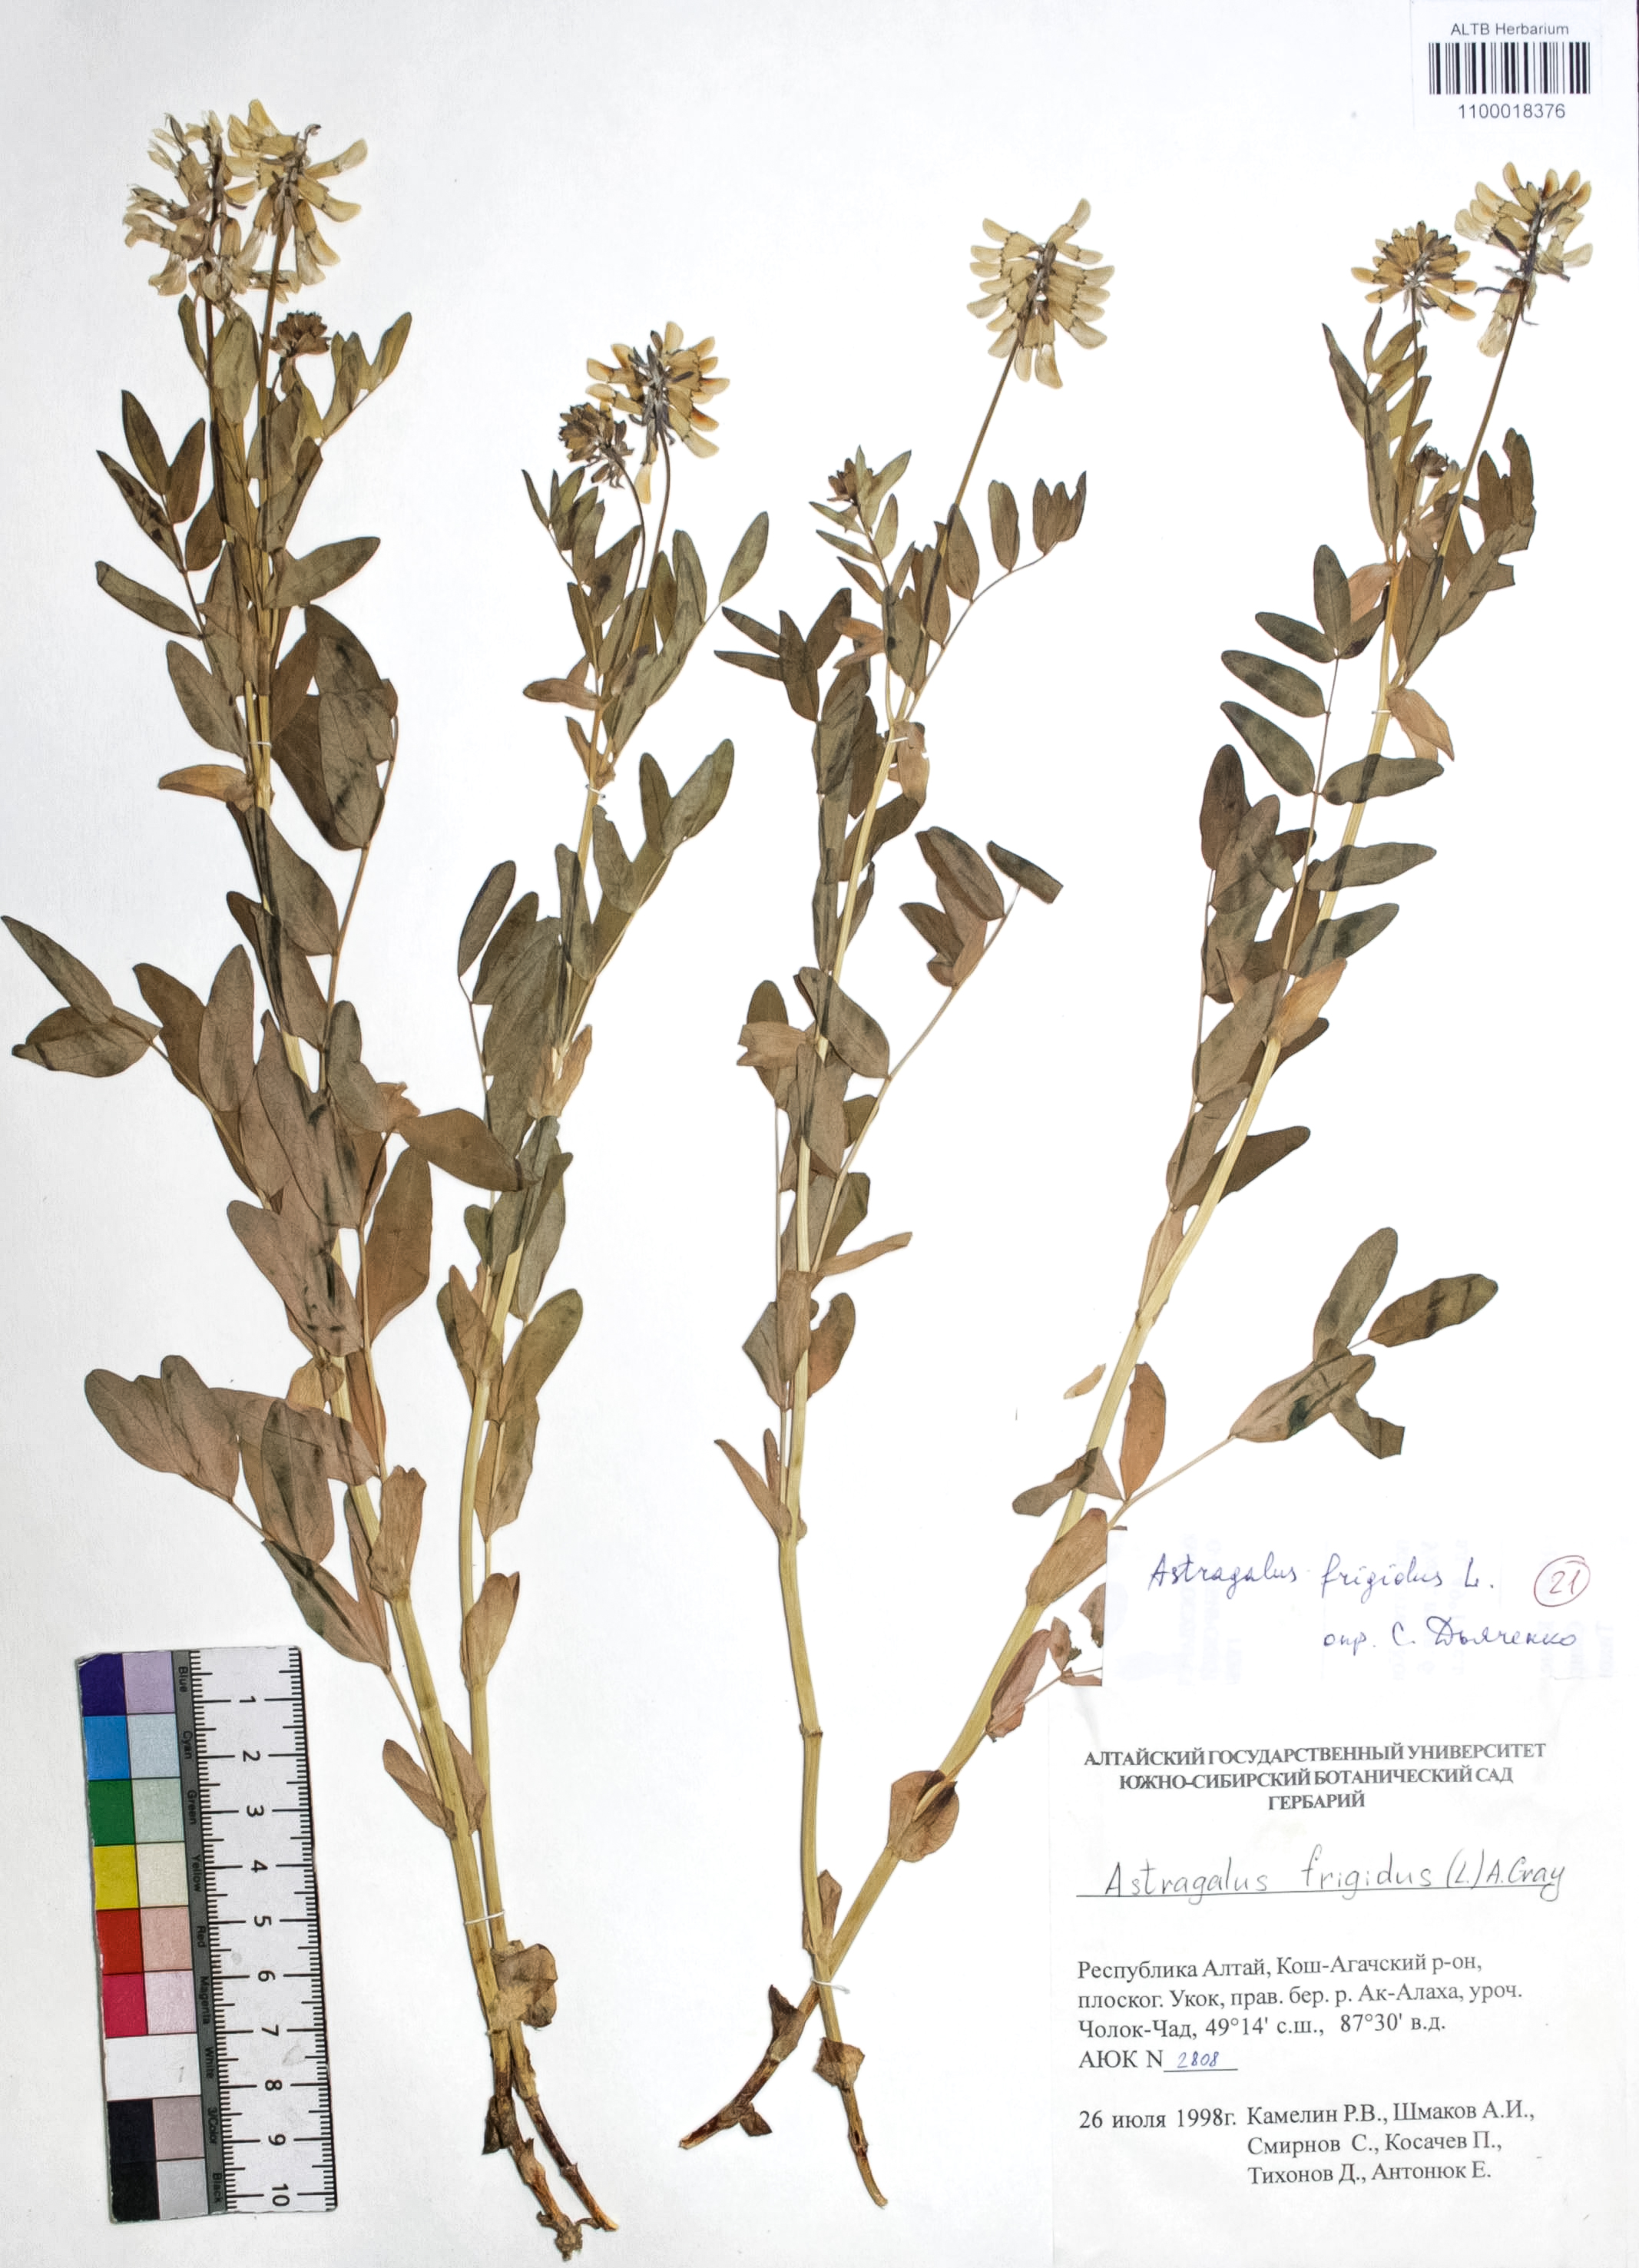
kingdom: Plantae
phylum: Tracheophyta
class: Magnoliopsida
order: Fabales
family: Fabaceae
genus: Astragalus
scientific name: Astragalus frigidus
